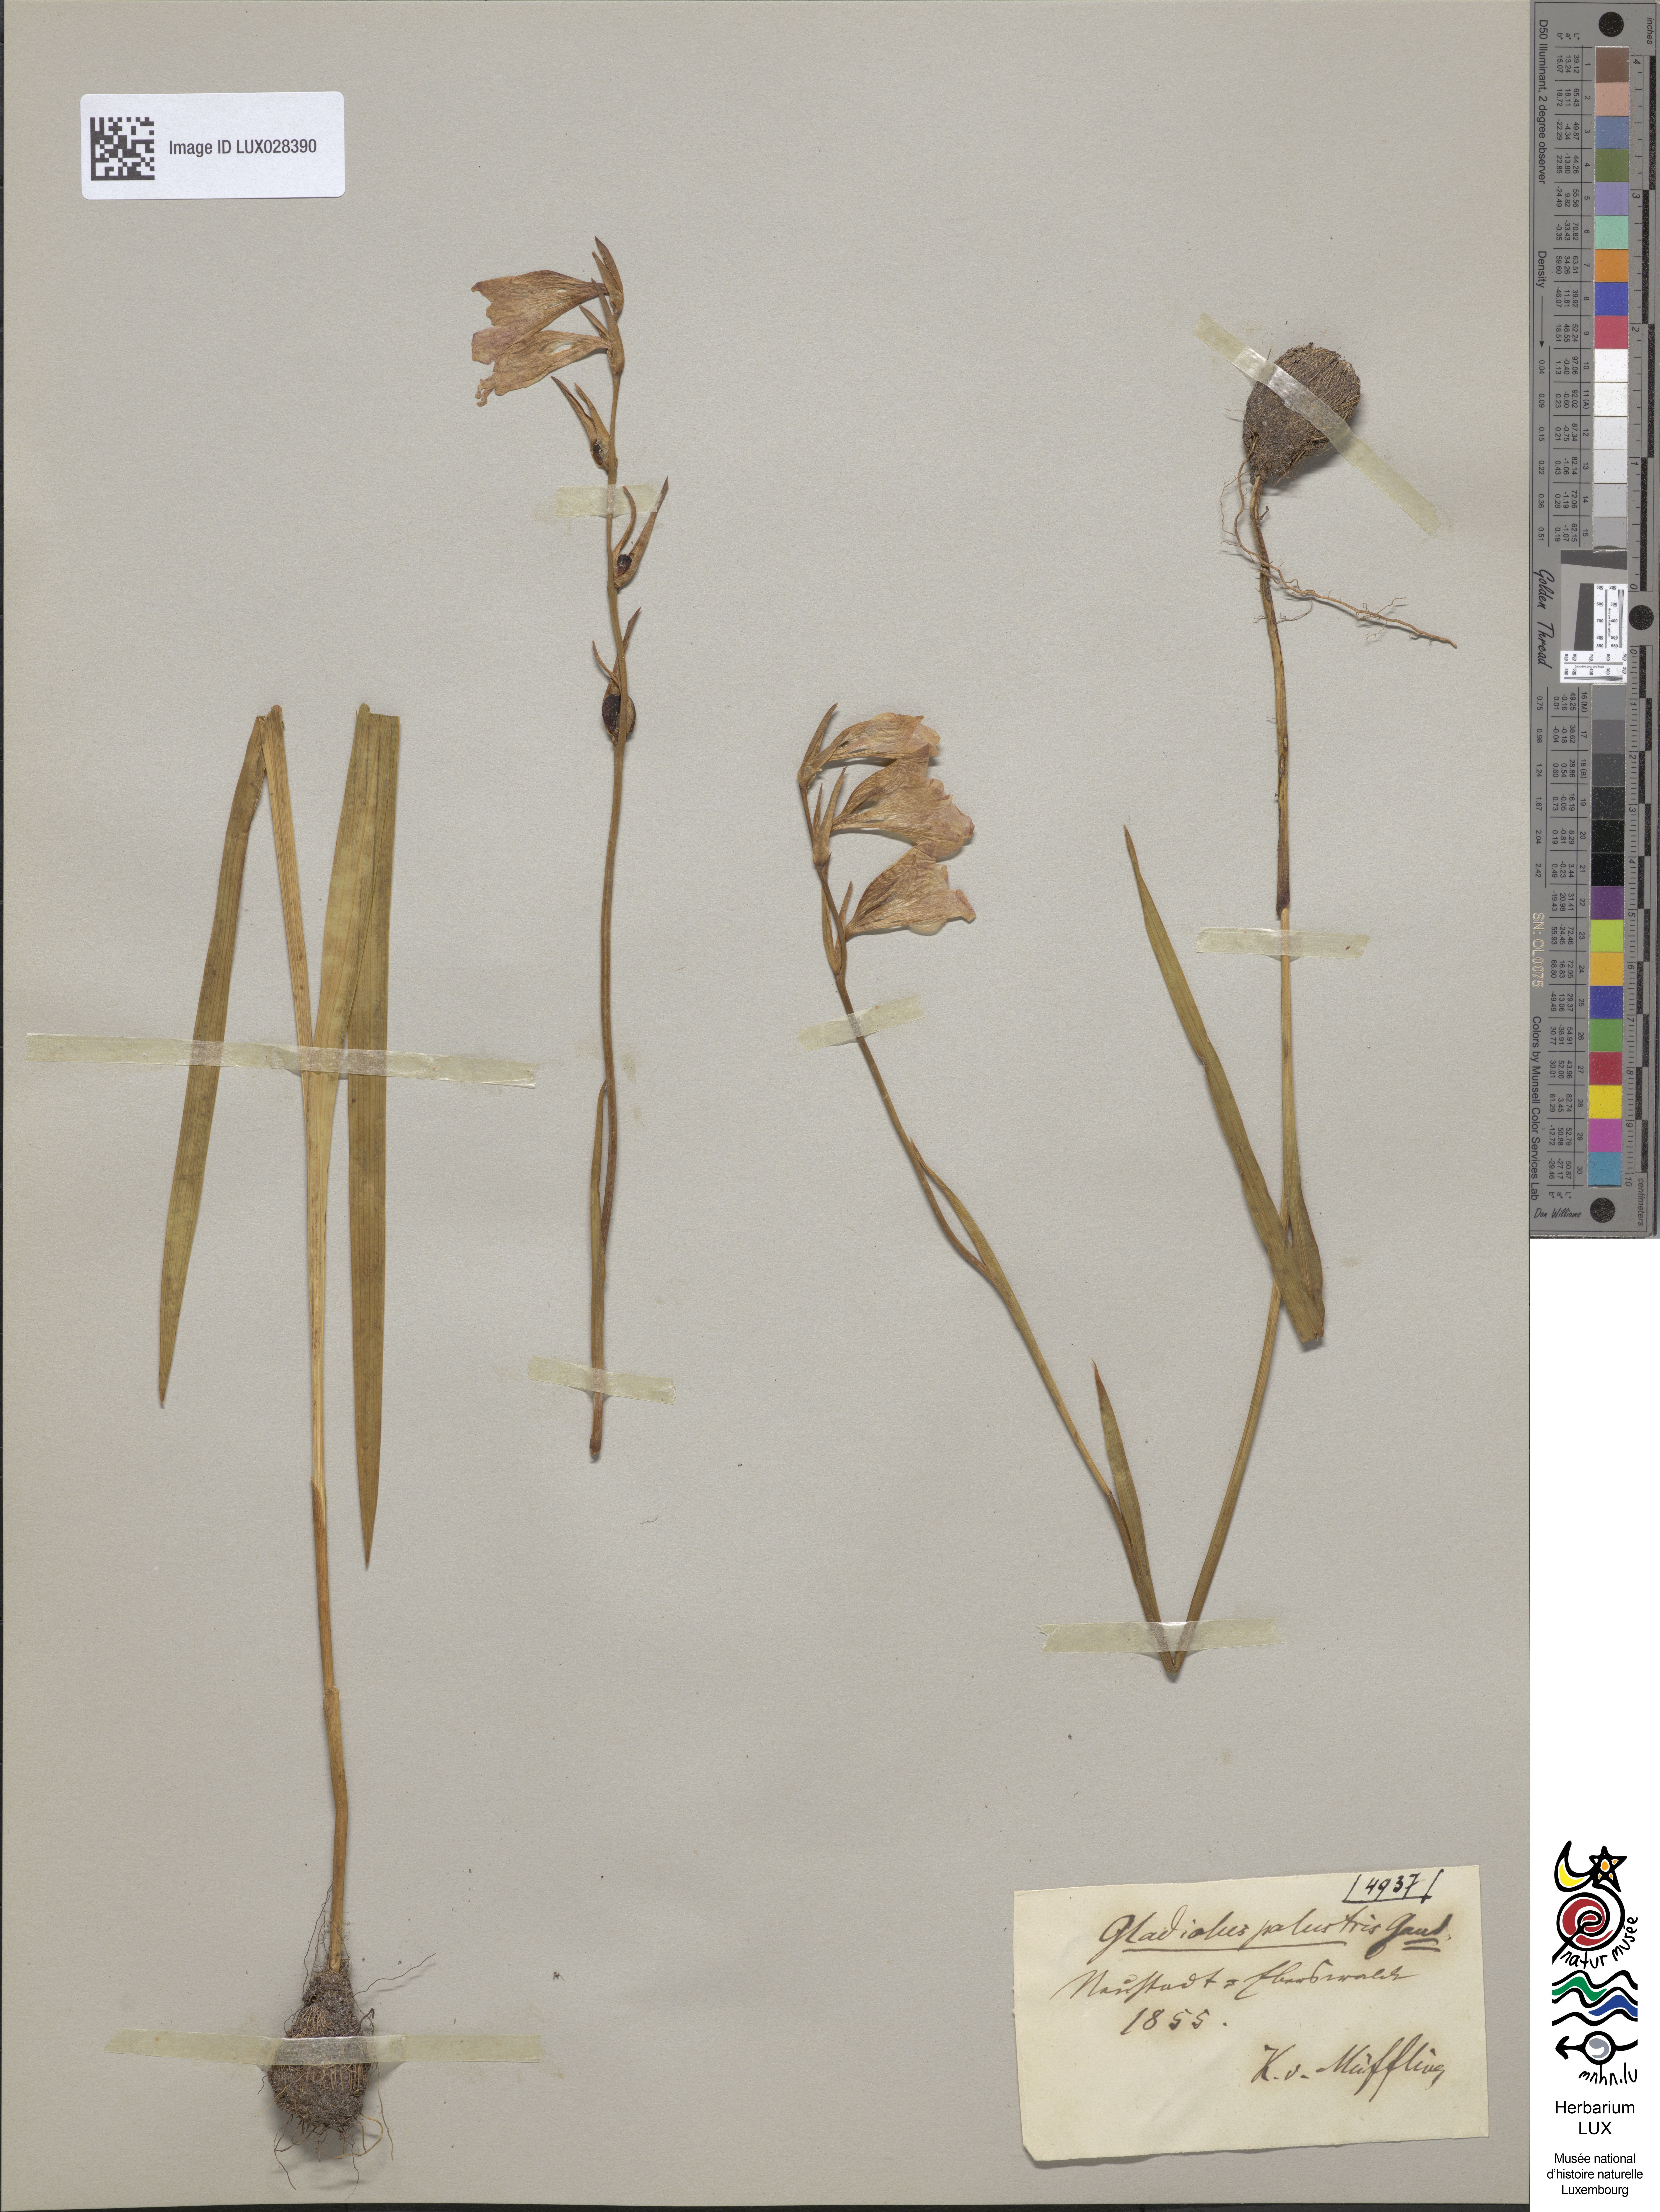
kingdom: Plantae
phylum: Tracheophyta
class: Liliopsida
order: Asparagales
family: Iridaceae
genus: Gladiolus
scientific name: Gladiolus palustris
